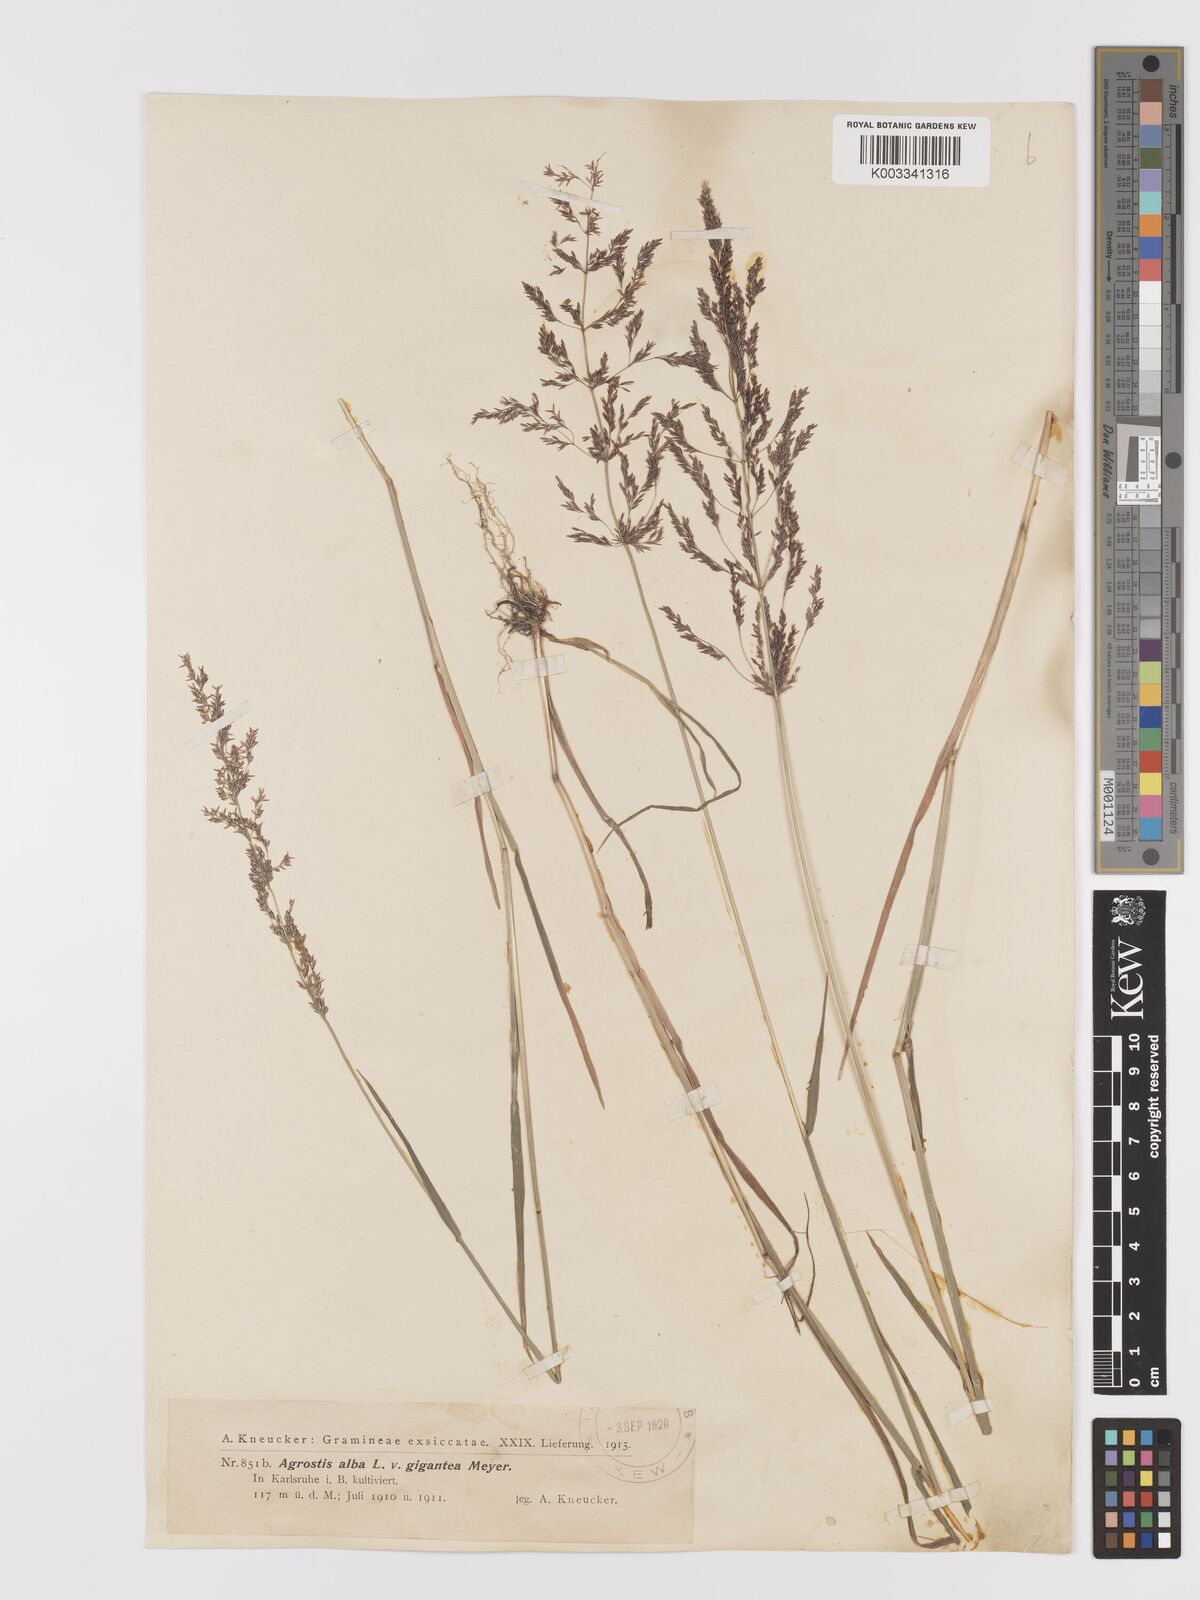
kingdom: Plantae
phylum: Tracheophyta
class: Liliopsida
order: Poales
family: Poaceae
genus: Agrostis
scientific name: Agrostis gigantea
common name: Black bent
